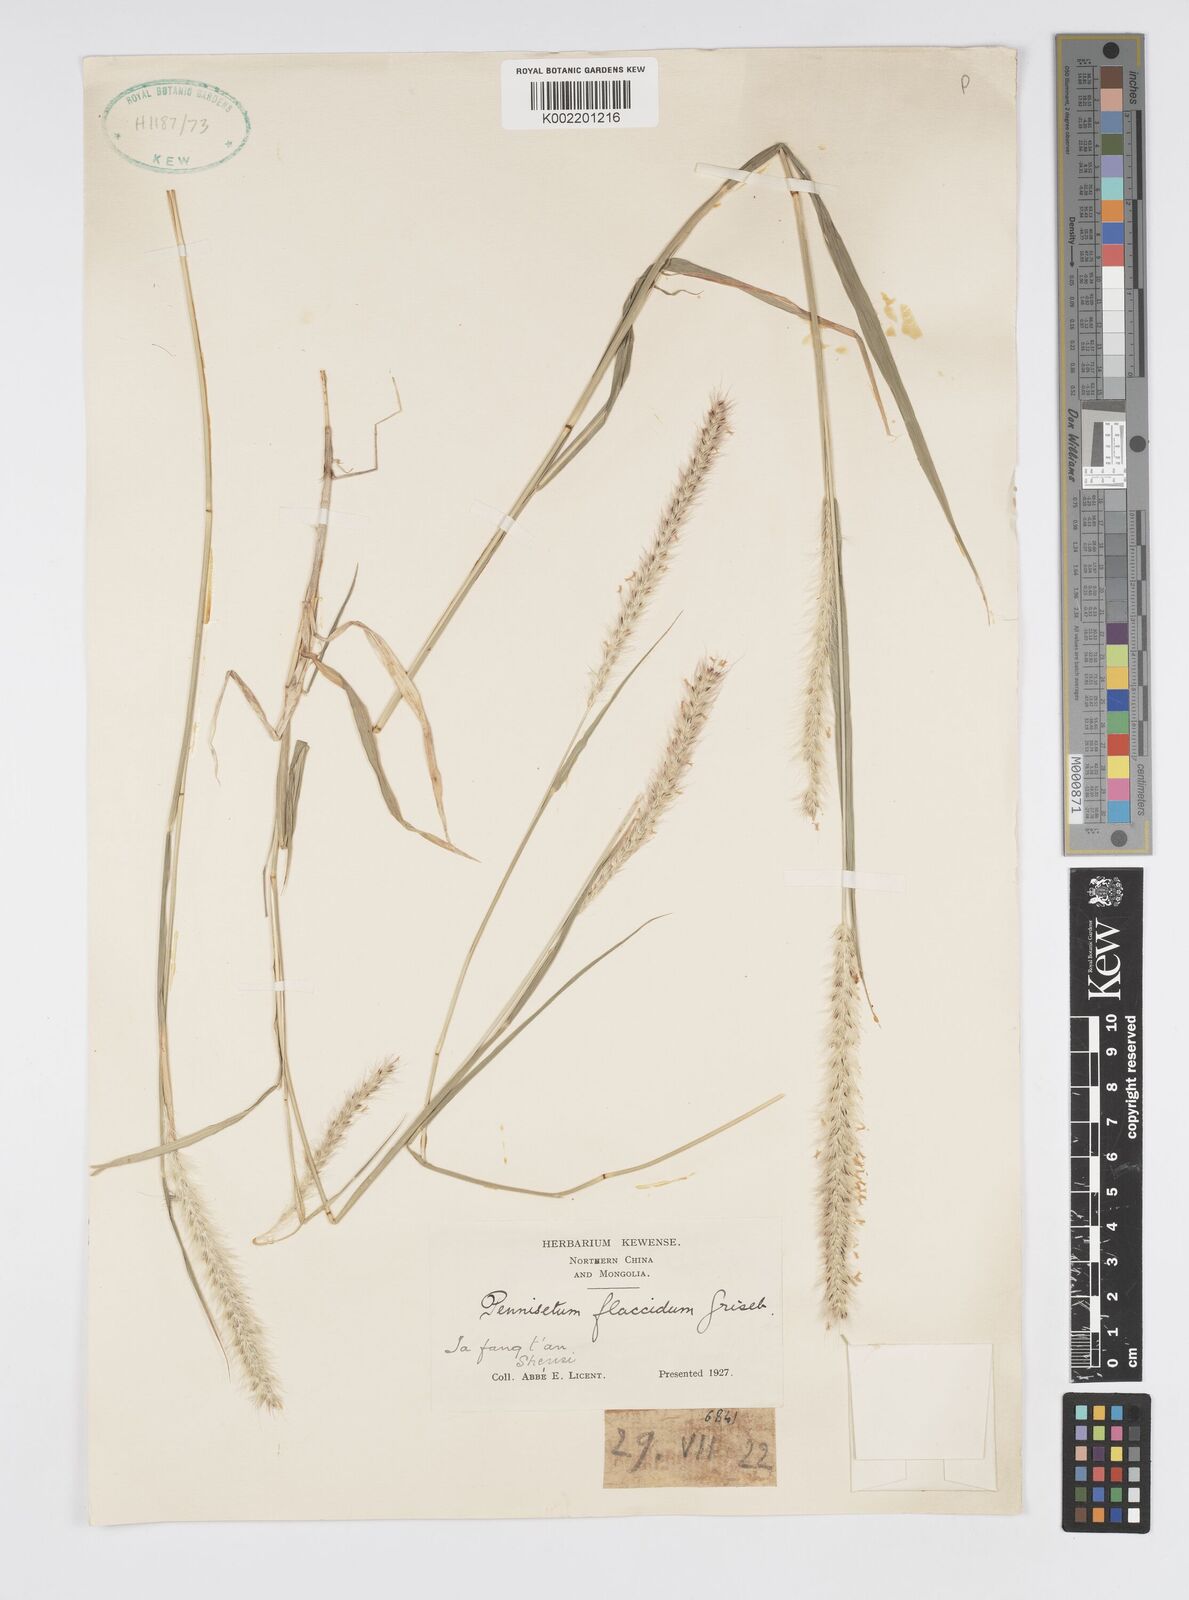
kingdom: Plantae
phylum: Tracheophyta
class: Liliopsida
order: Poales
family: Poaceae
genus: Cenchrus
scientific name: Cenchrus flaccidus
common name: Flaccid grass
